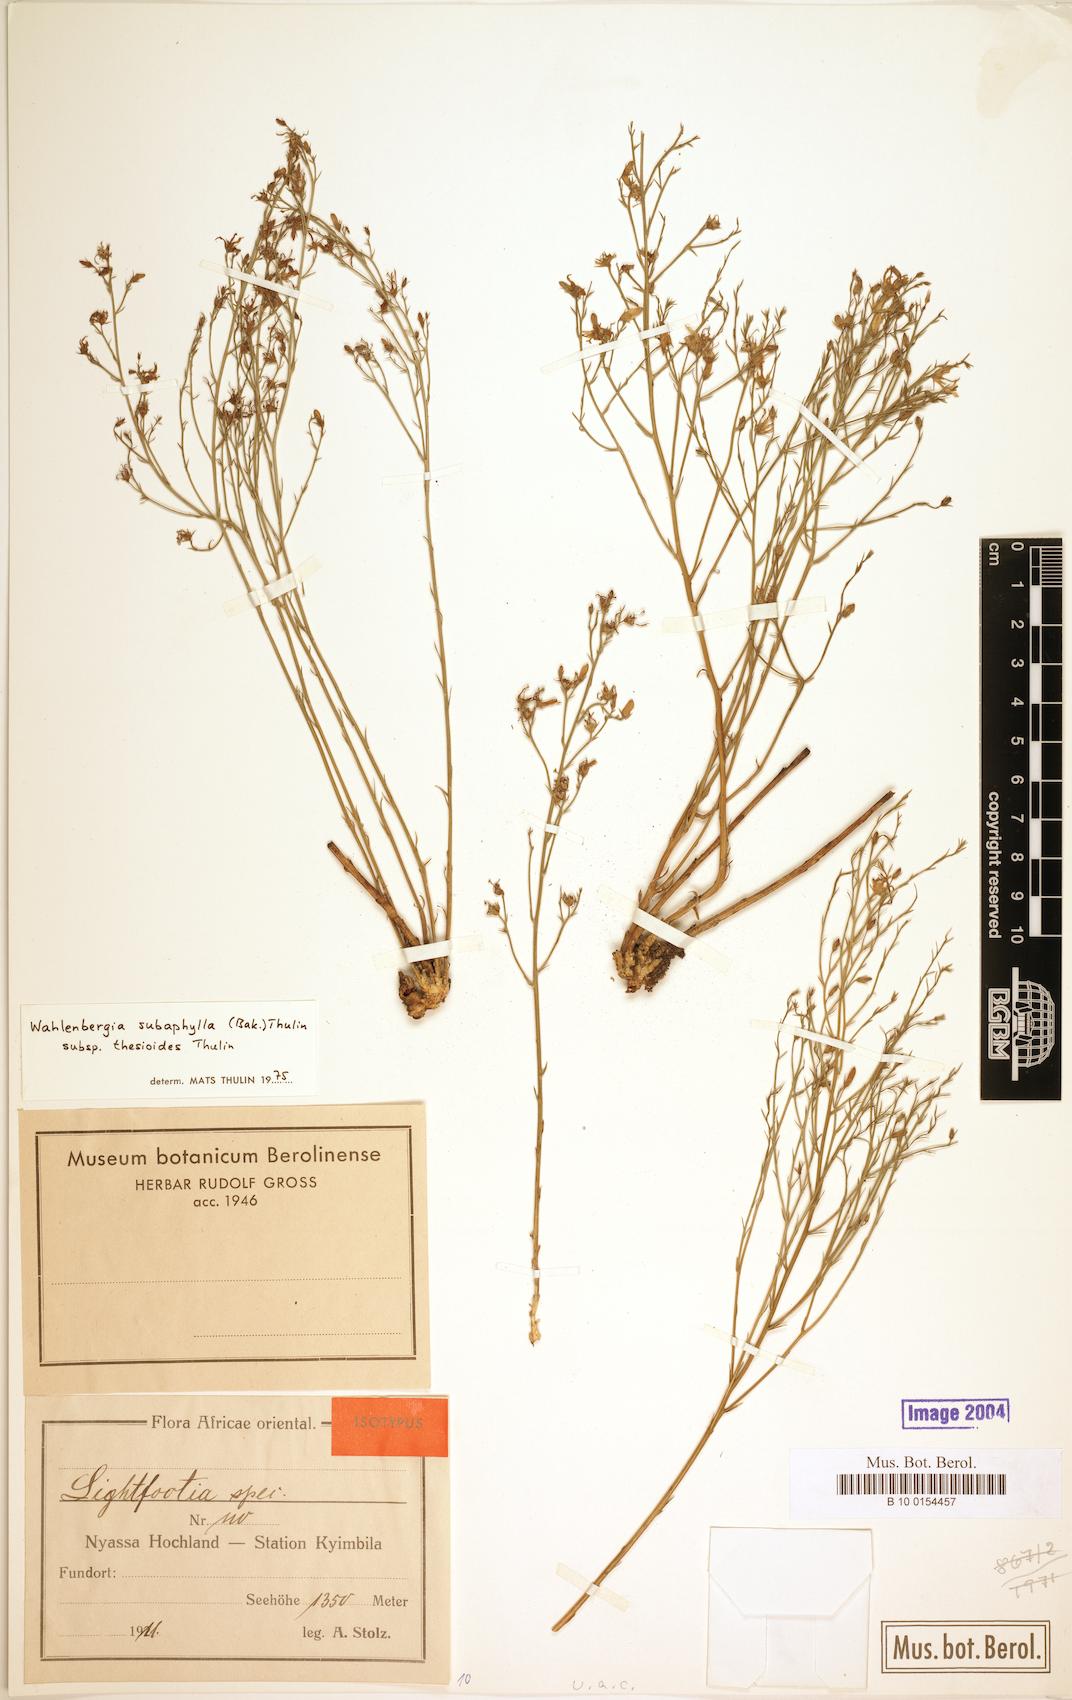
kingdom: Plantae
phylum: Tracheophyta
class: Magnoliopsida
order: Asterales
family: Campanulaceae
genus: Wahlenbergia
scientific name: Wahlenbergia subaphylla
